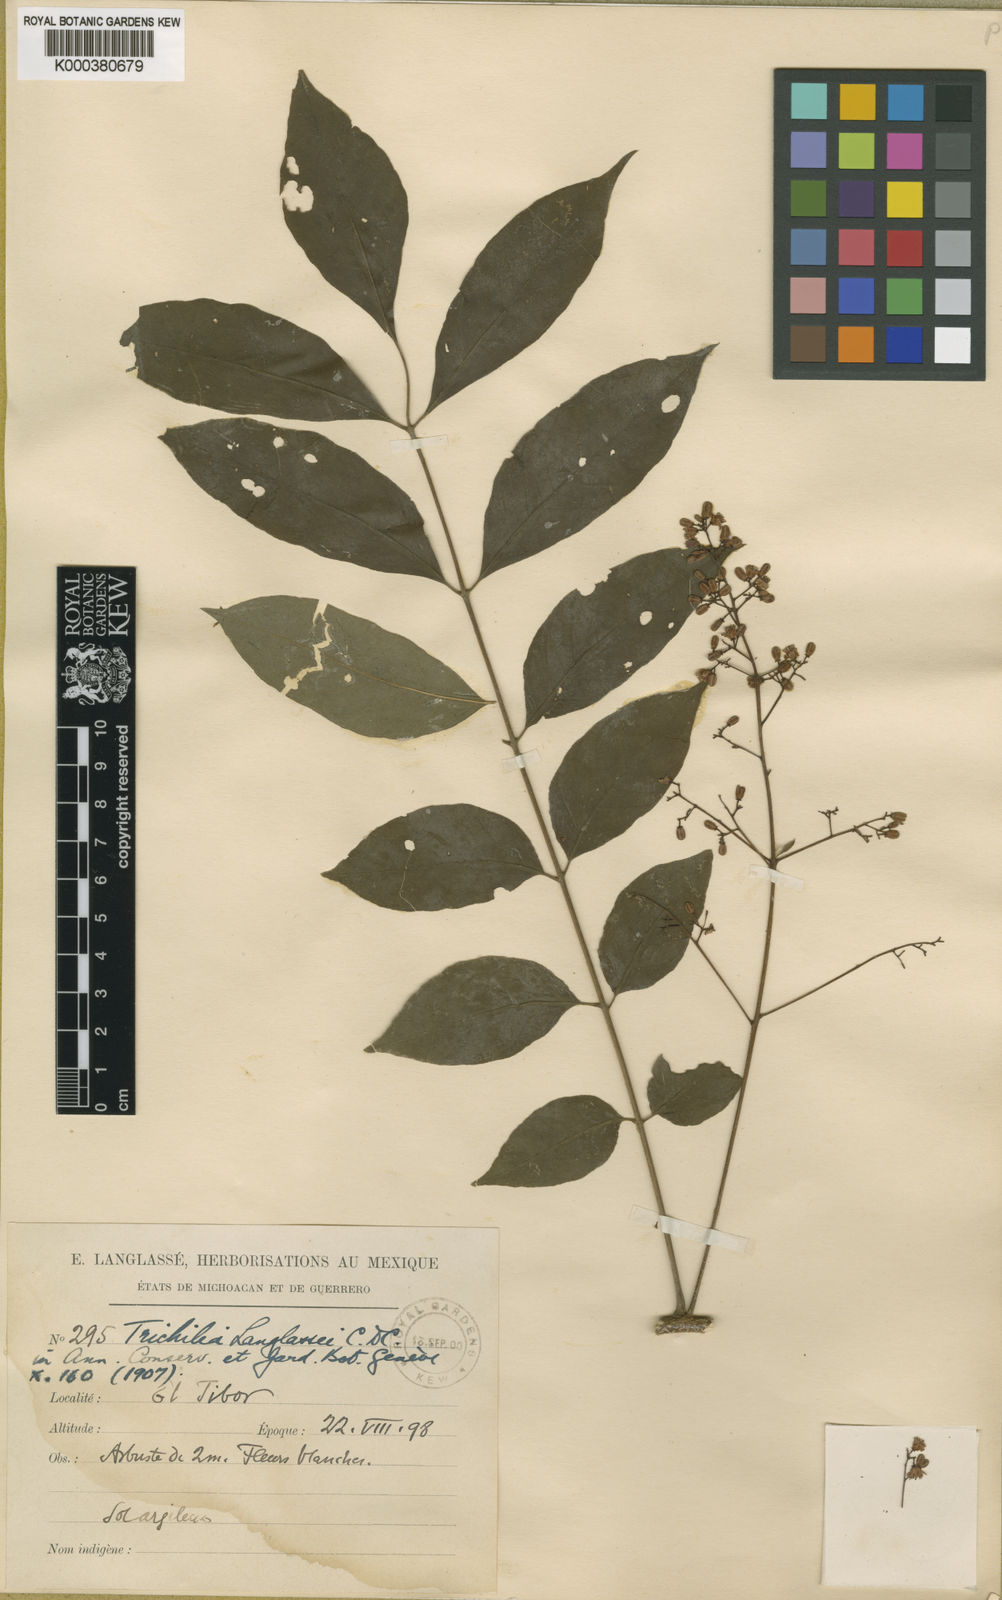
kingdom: Plantae
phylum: Tracheophyta
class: Magnoliopsida
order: Sapindales
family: Meliaceae
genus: Trichilia
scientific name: Trichilia
